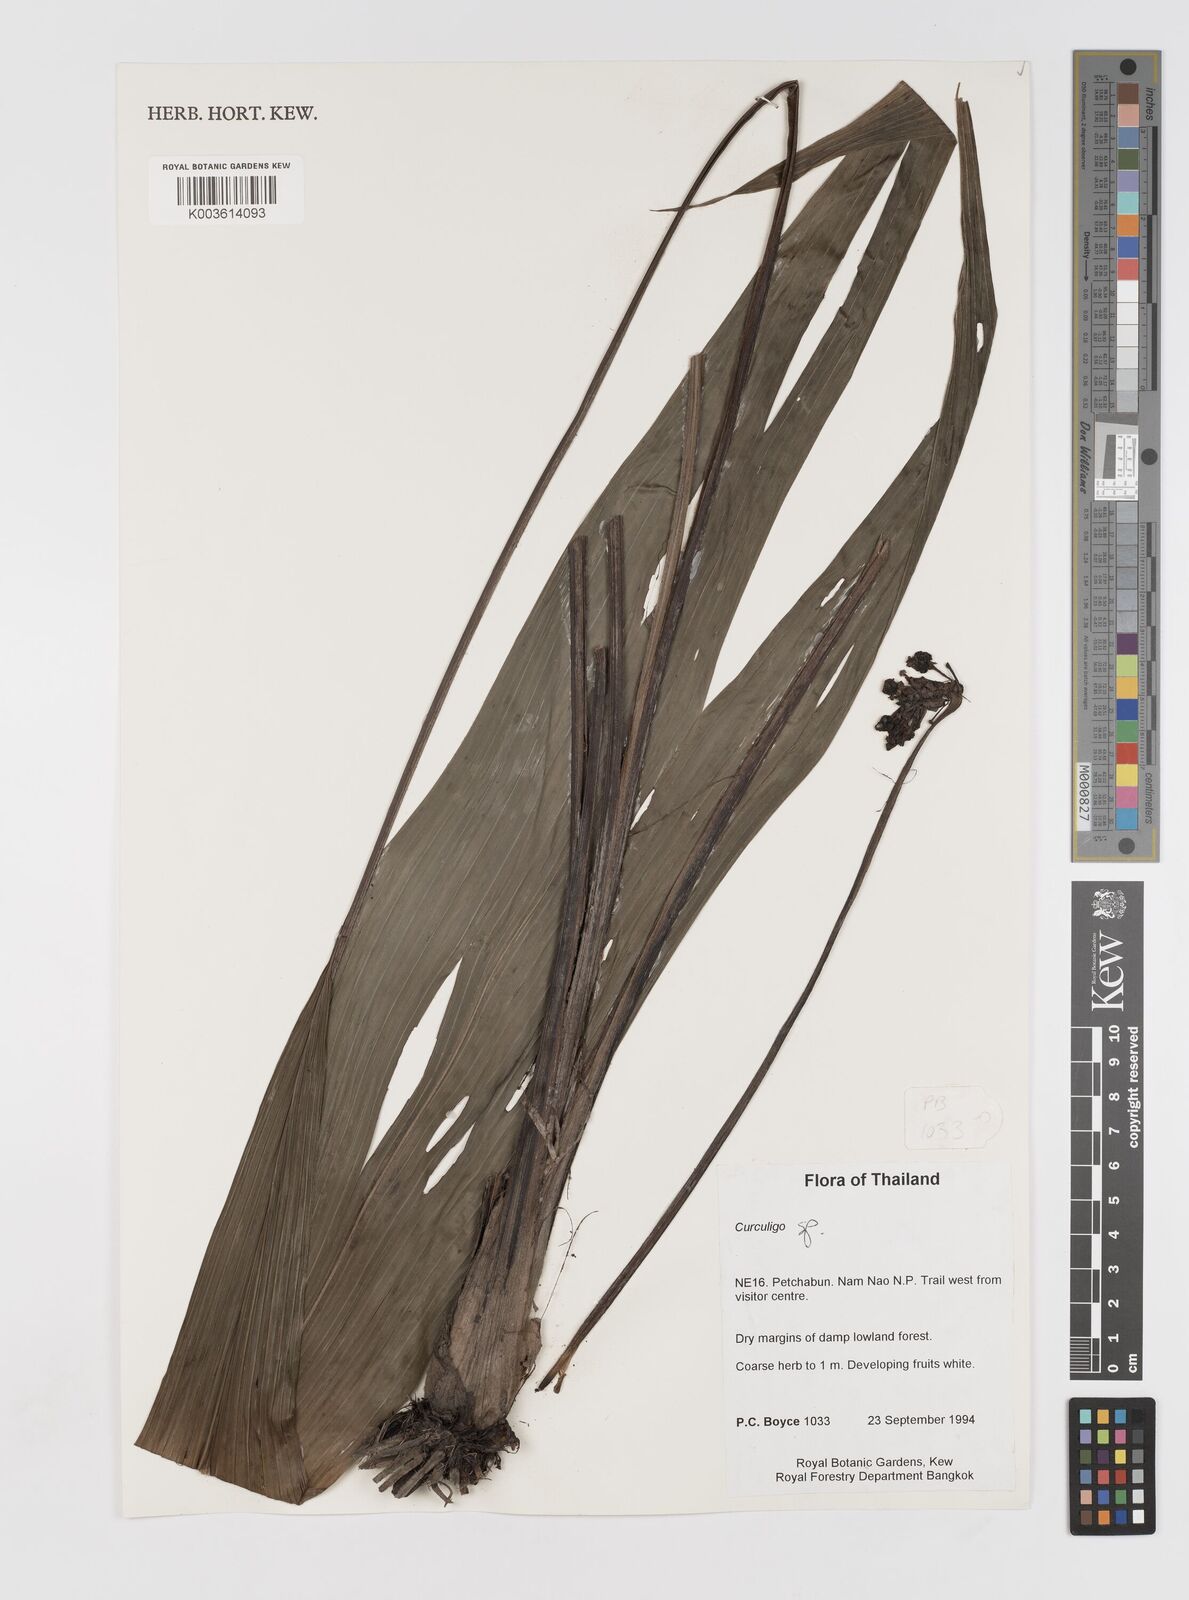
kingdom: Plantae
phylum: Tracheophyta
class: Liliopsida
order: Asparagales
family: Hypoxidaceae
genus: Curculigo
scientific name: Curculigo
